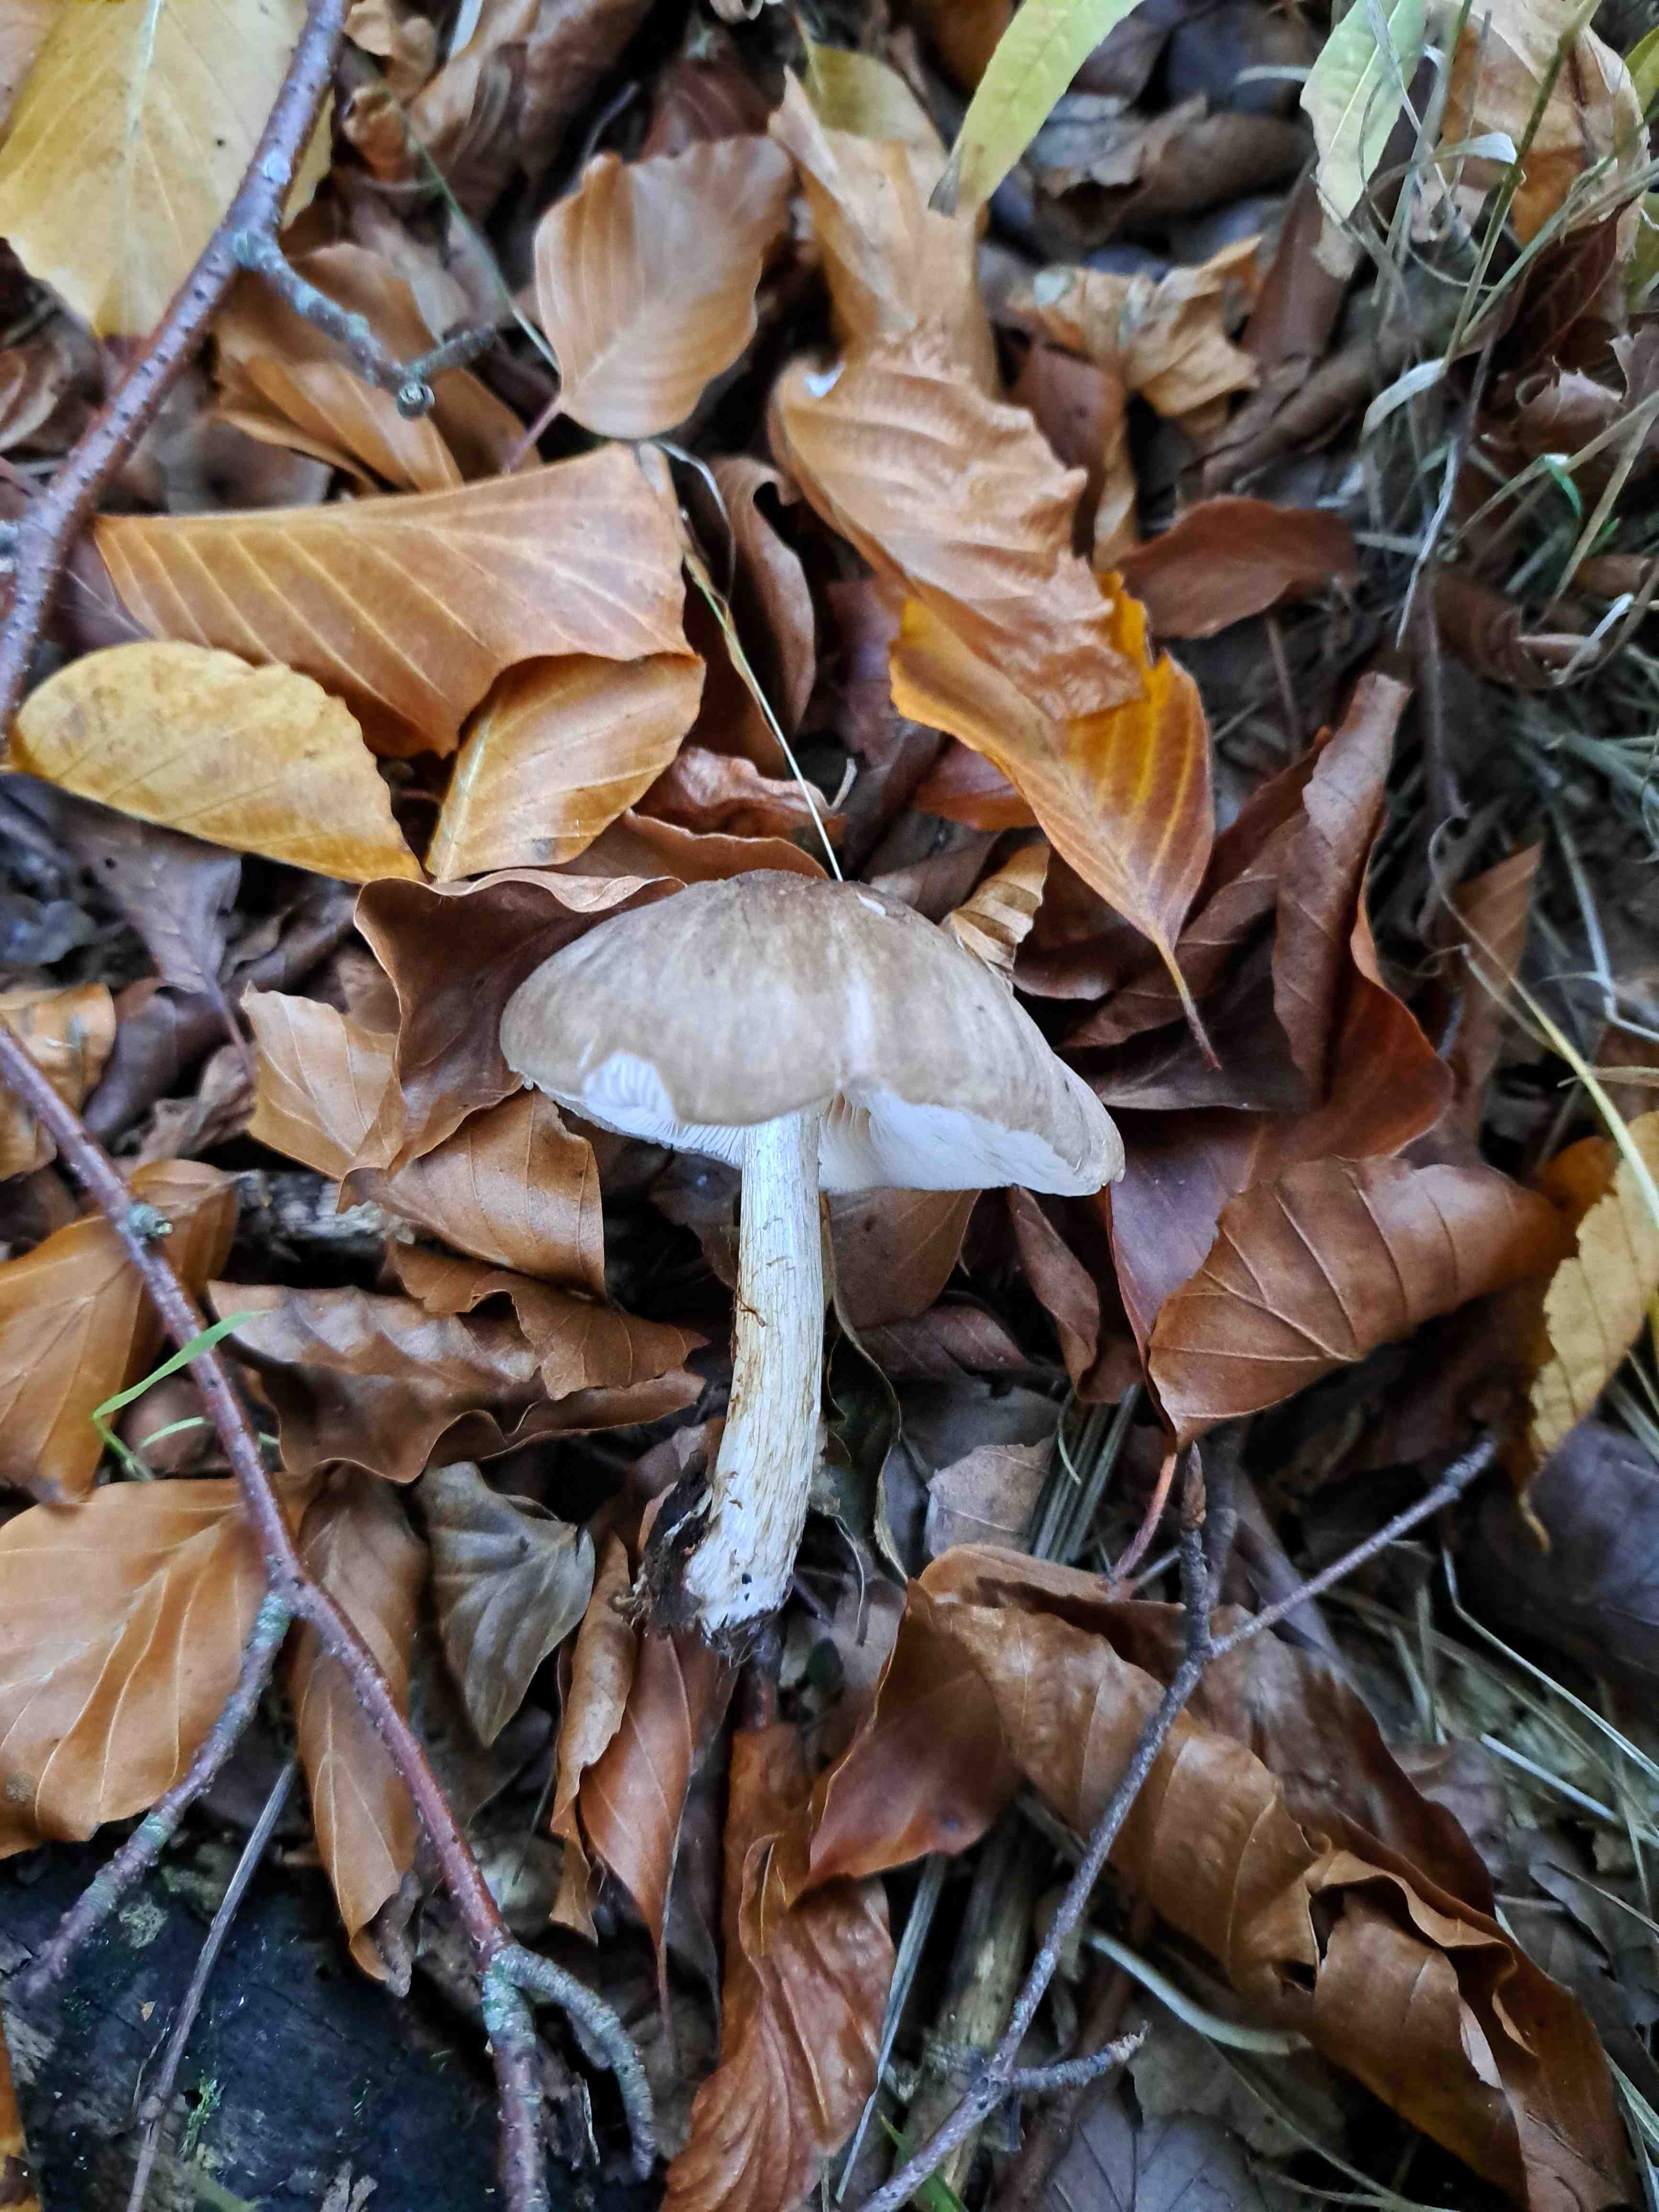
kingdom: Fungi
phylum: Basidiomycota
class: Agaricomycetes
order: Agaricales
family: Pluteaceae
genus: Pluteus
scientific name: Pluteus cervinus
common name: sodfarvet skærmhat
